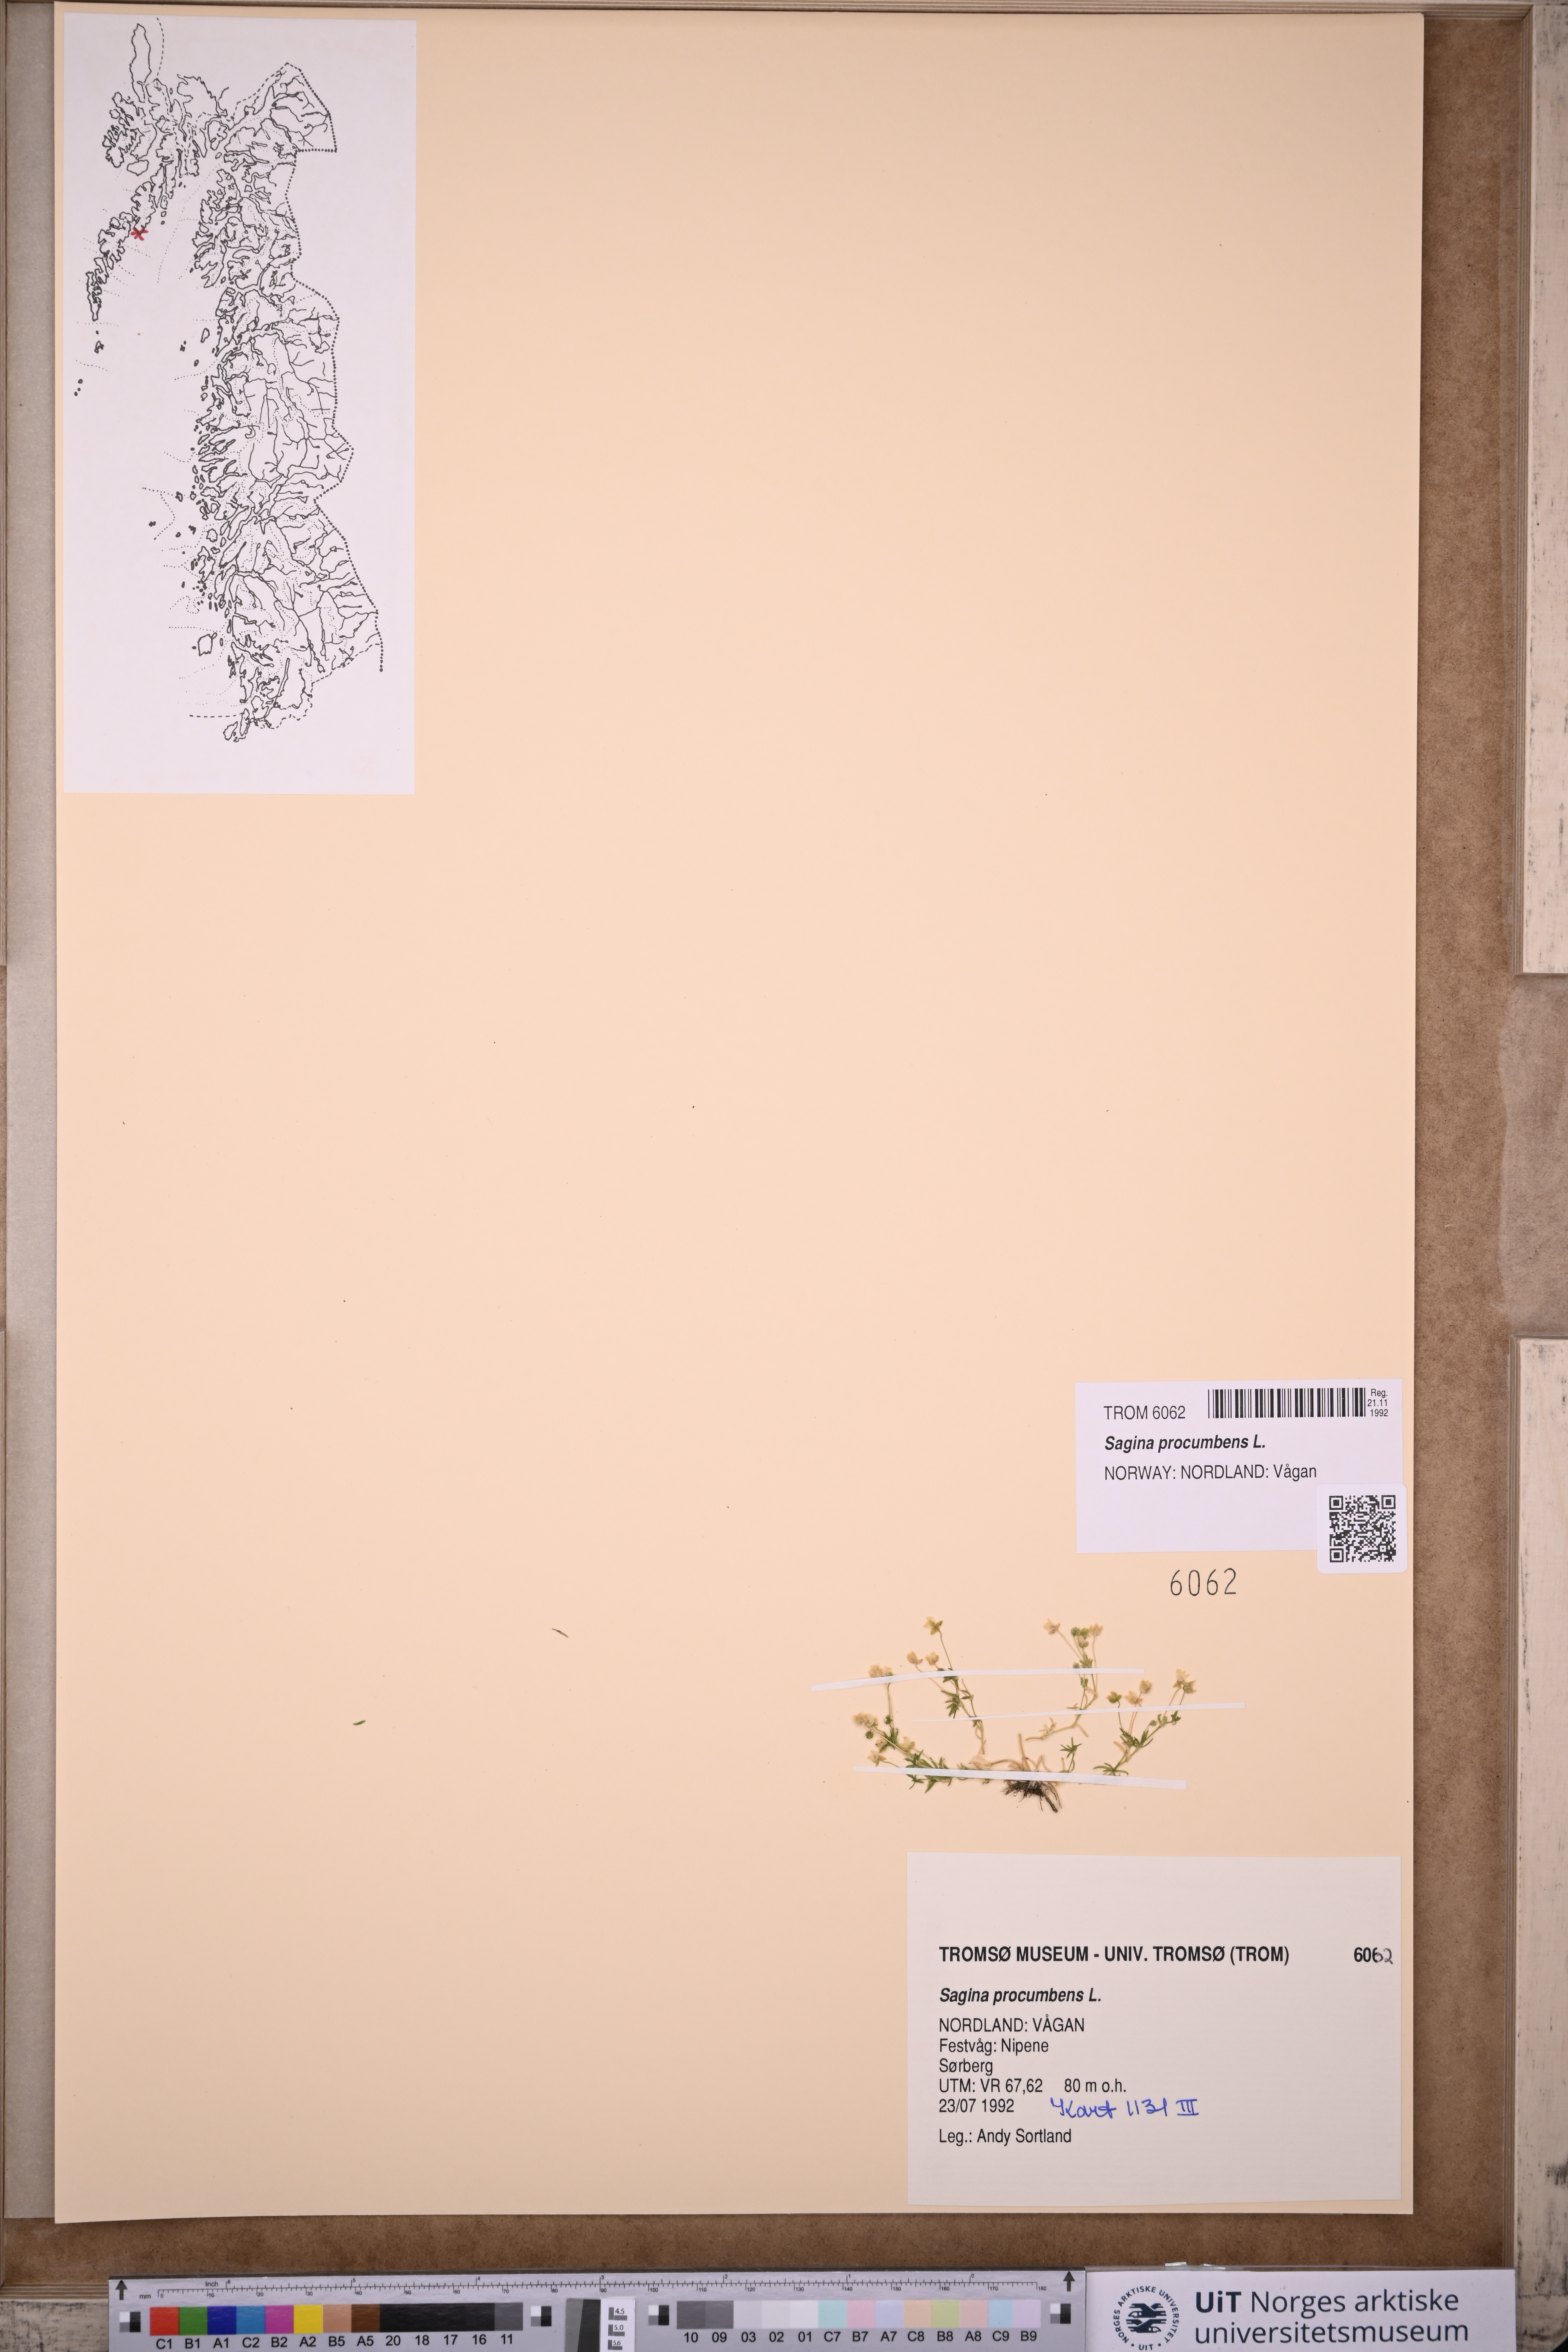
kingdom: Plantae
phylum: Tracheophyta
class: Magnoliopsida
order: Caryophyllales
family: Caryophyllaceae
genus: Sagina
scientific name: Sagina procumbens
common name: Procumbent pearlwort
